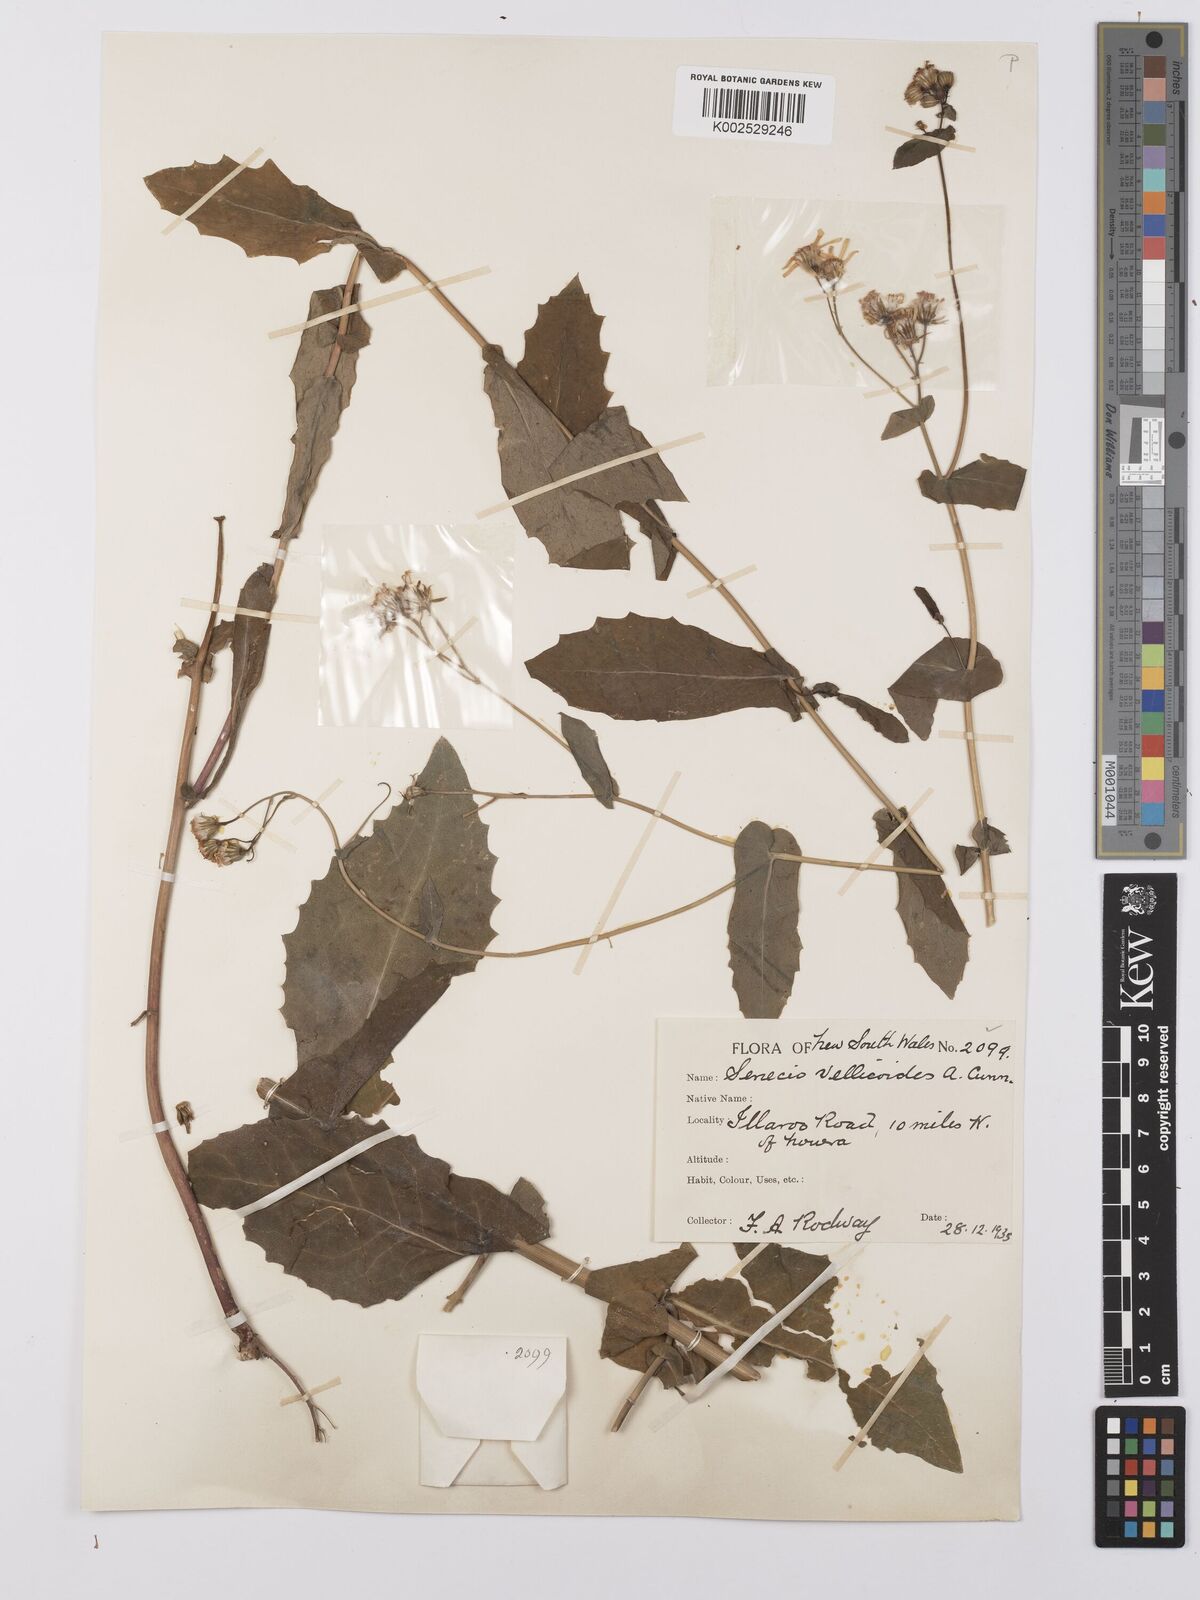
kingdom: Plantae
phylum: Tracheophyta
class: Magnoliopsida
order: Asterales
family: Asteraceae
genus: Lordhowea
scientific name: Lordhowea velleioides
